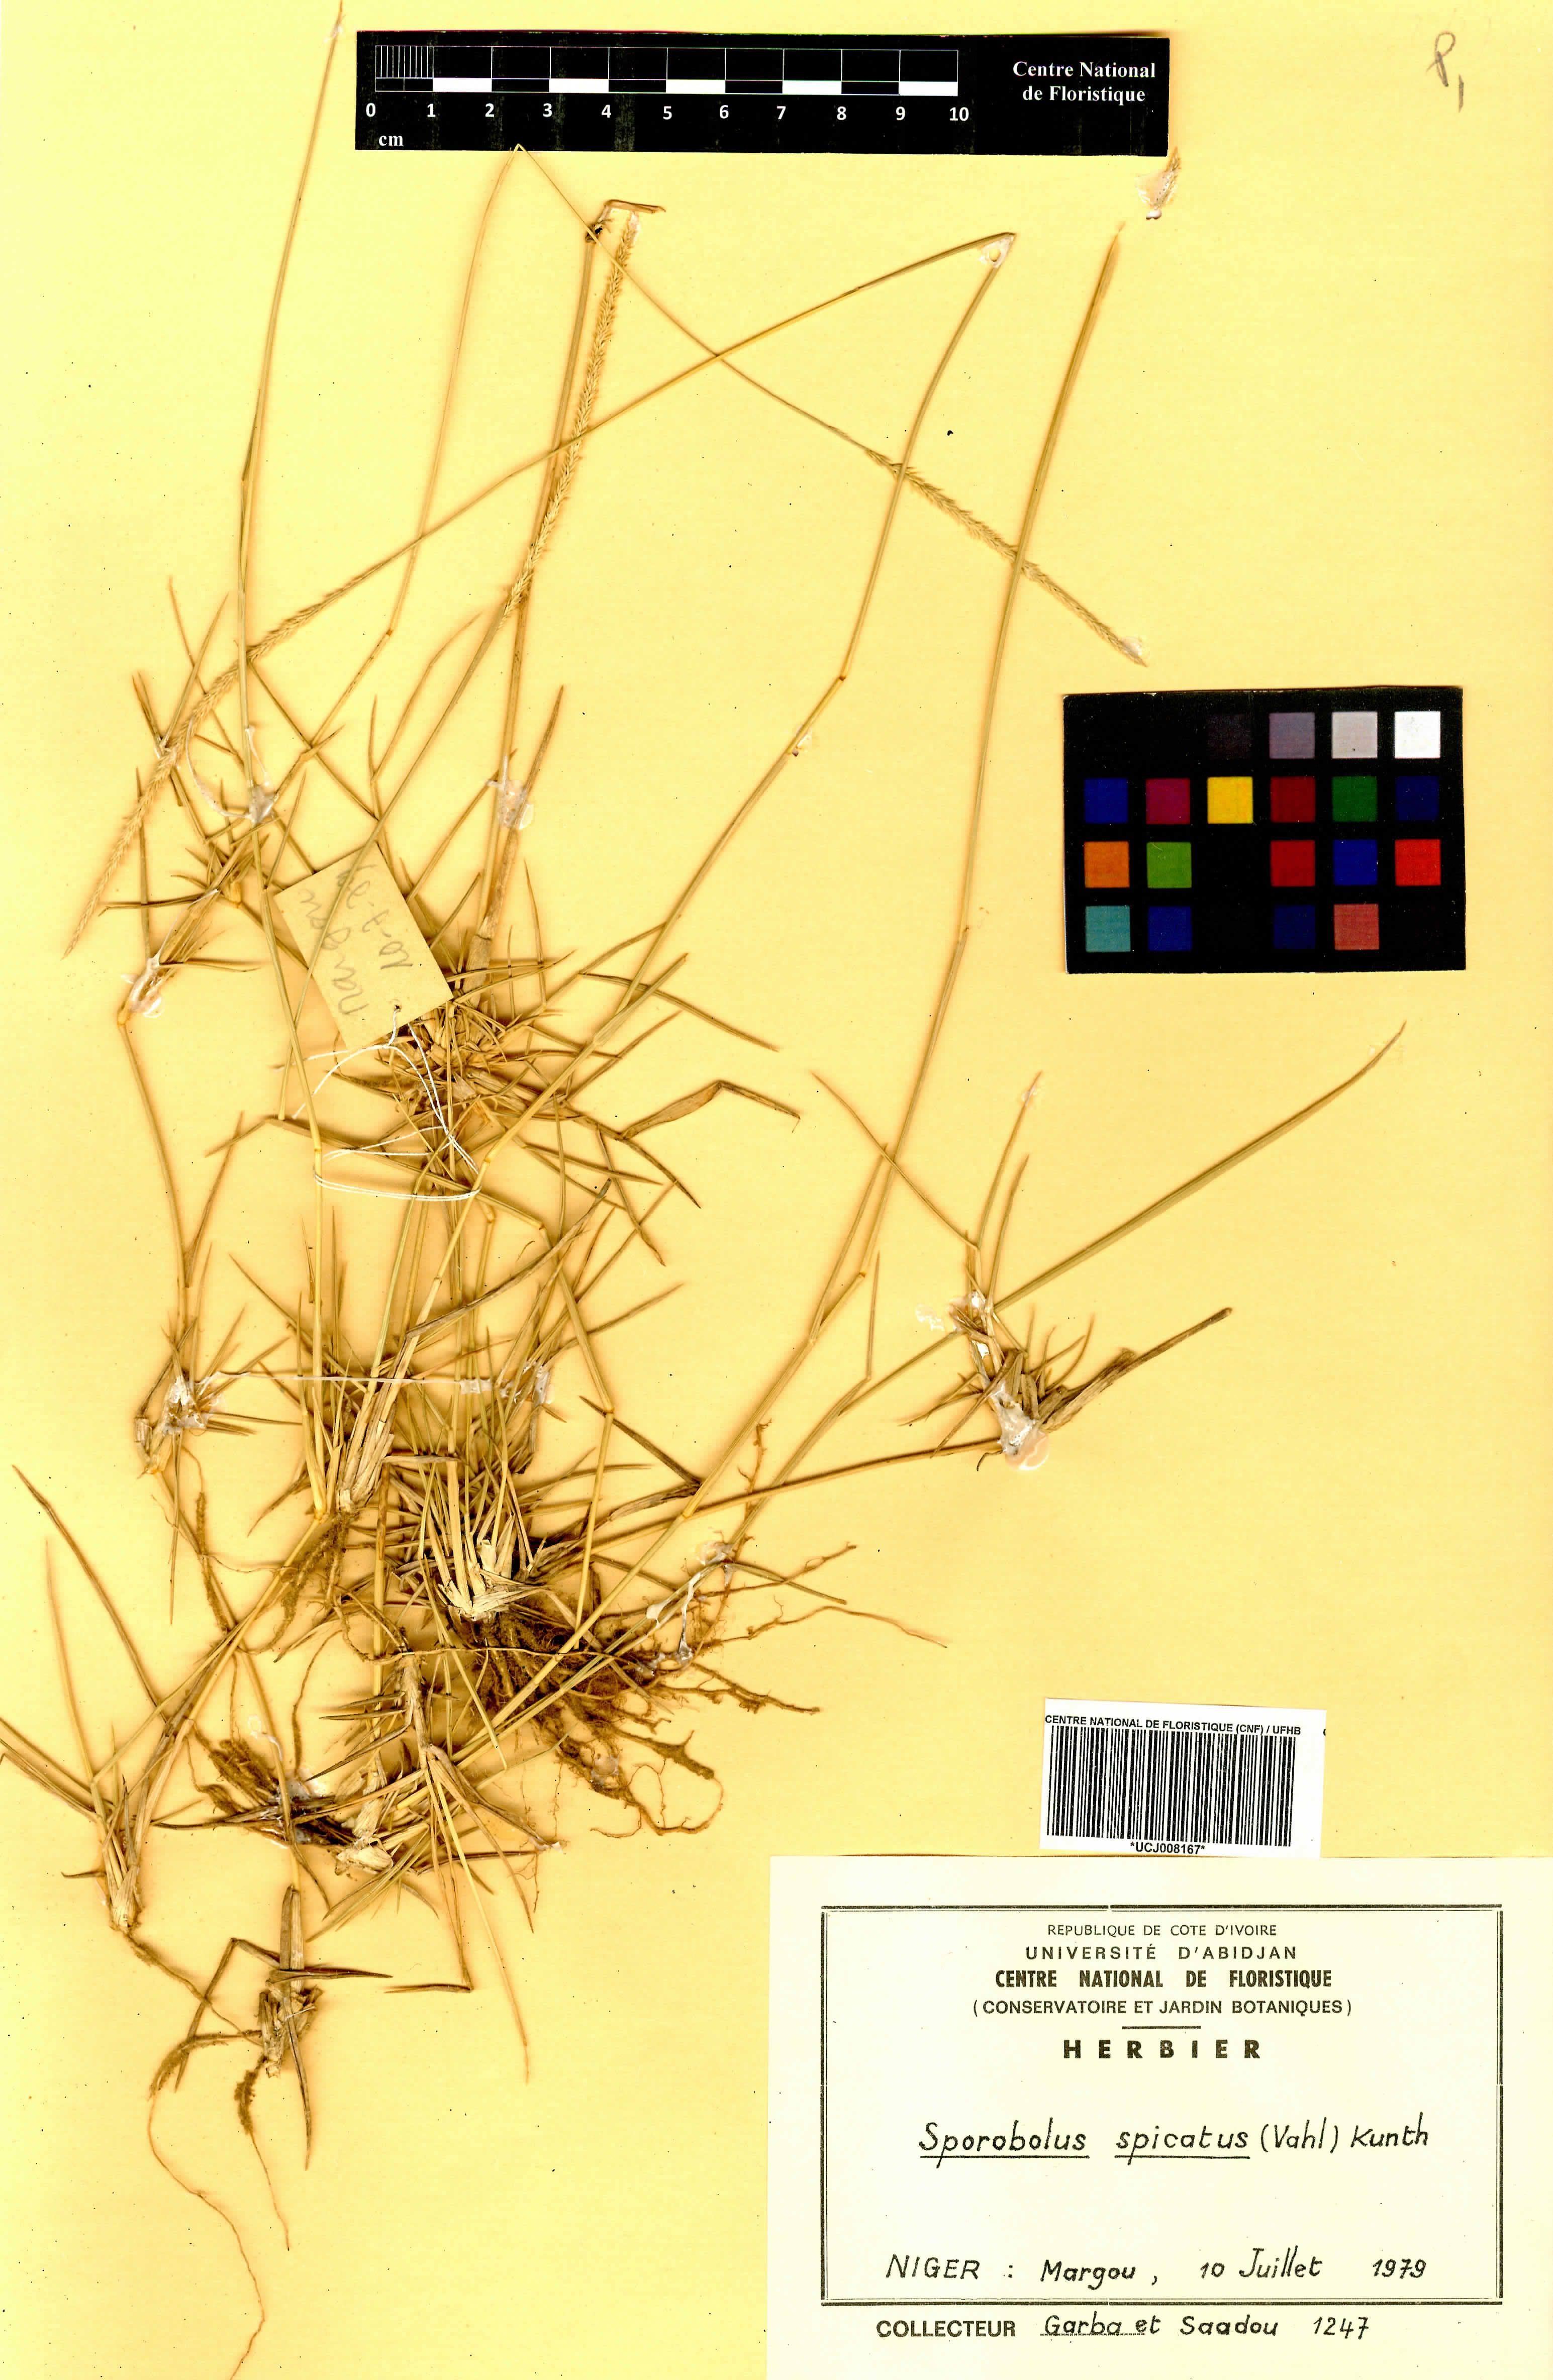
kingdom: Plantae
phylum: Tracheophyta
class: Liliopsida
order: Poales
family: Poaceae
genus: Sporobolus
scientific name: Sporobolus spicatus
